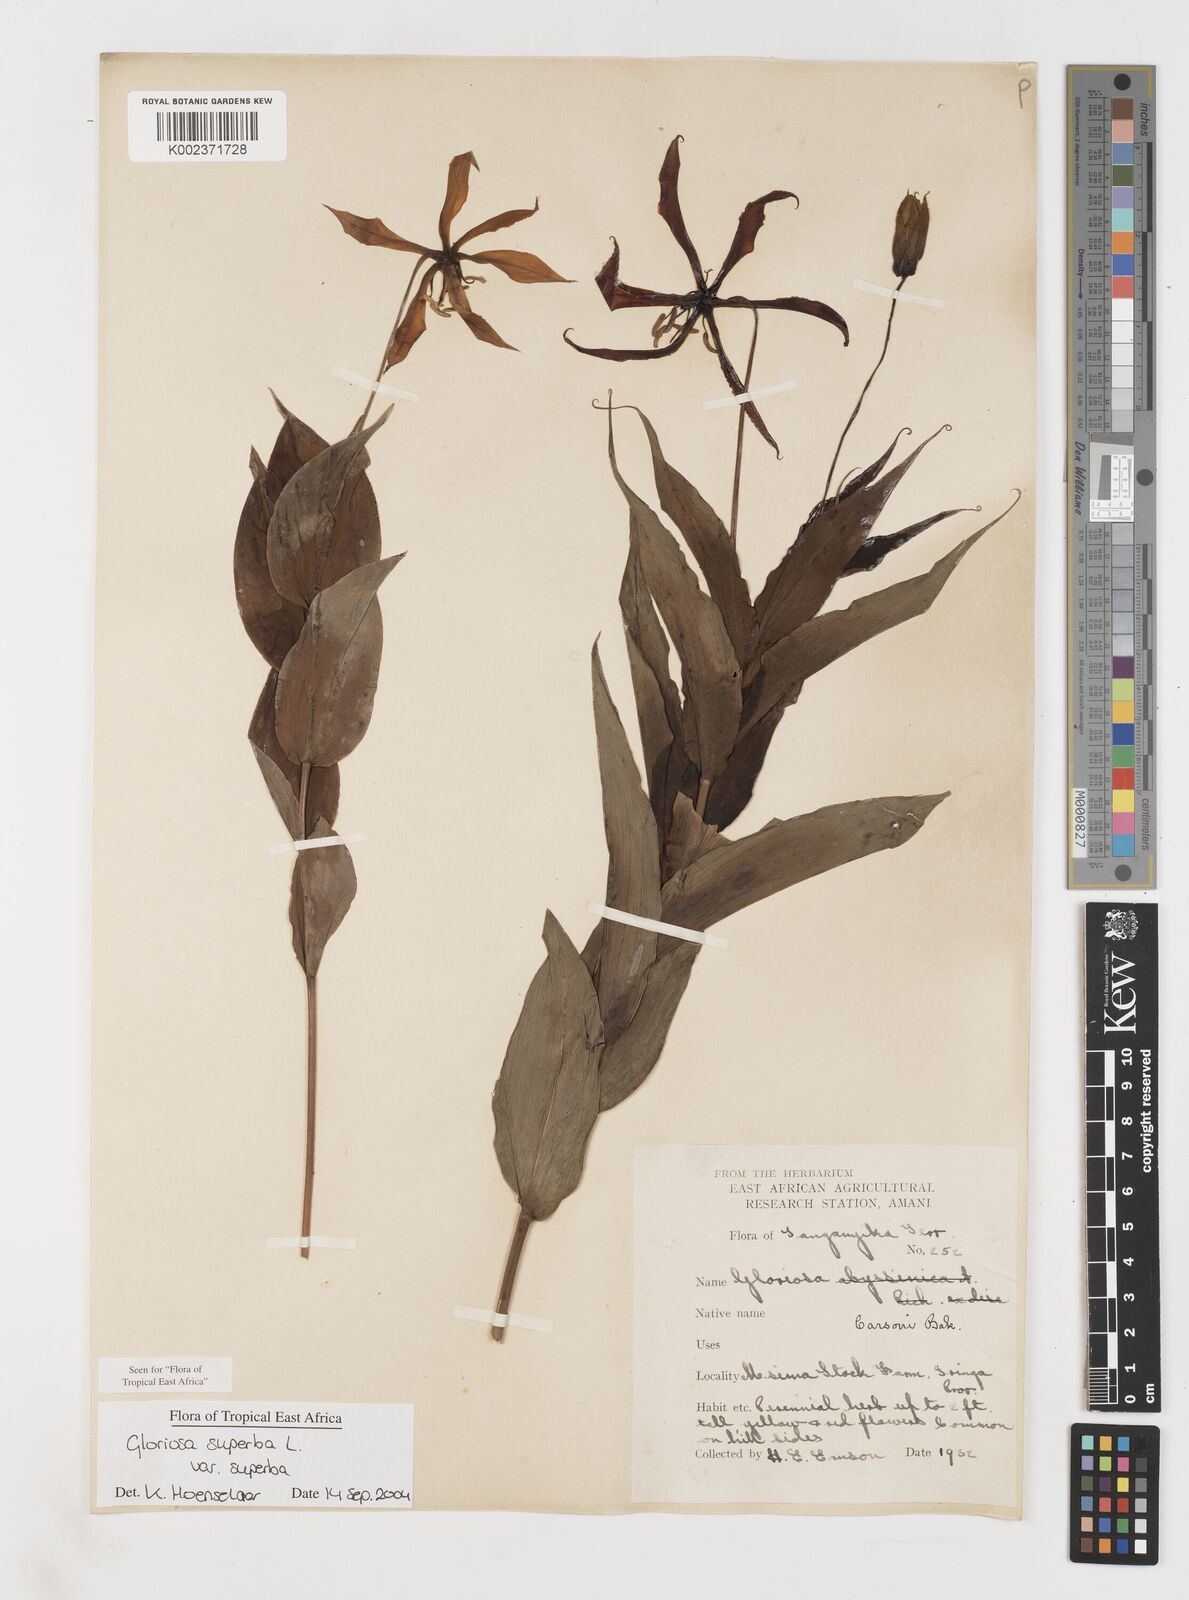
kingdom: Plantae
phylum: Tracheophyta
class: Liliopsida
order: Liliales
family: Colchicaceae
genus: Gloriosa
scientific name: Gloriosa simplex
